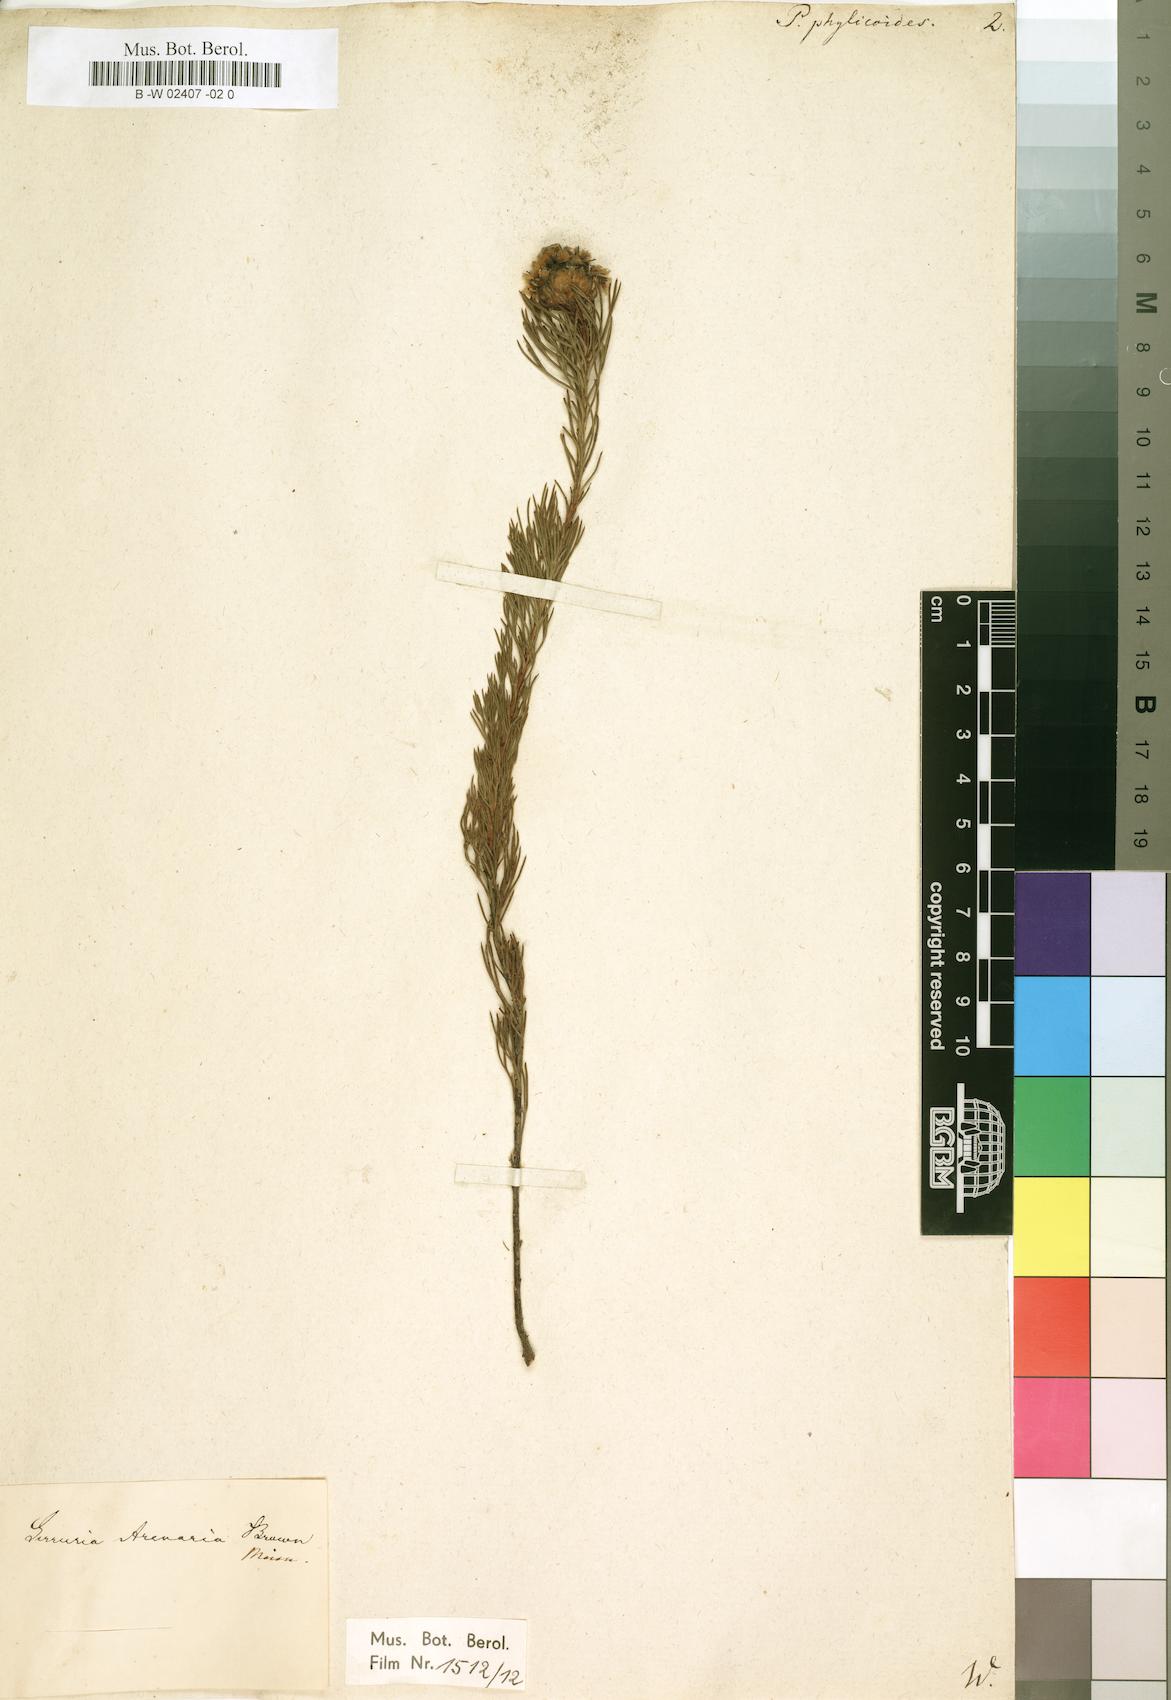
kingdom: Plantae
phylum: Tracheophyta
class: Magnoliopsida
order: Proteales
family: Proteaceae
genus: Protea
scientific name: Protea phylicoides
